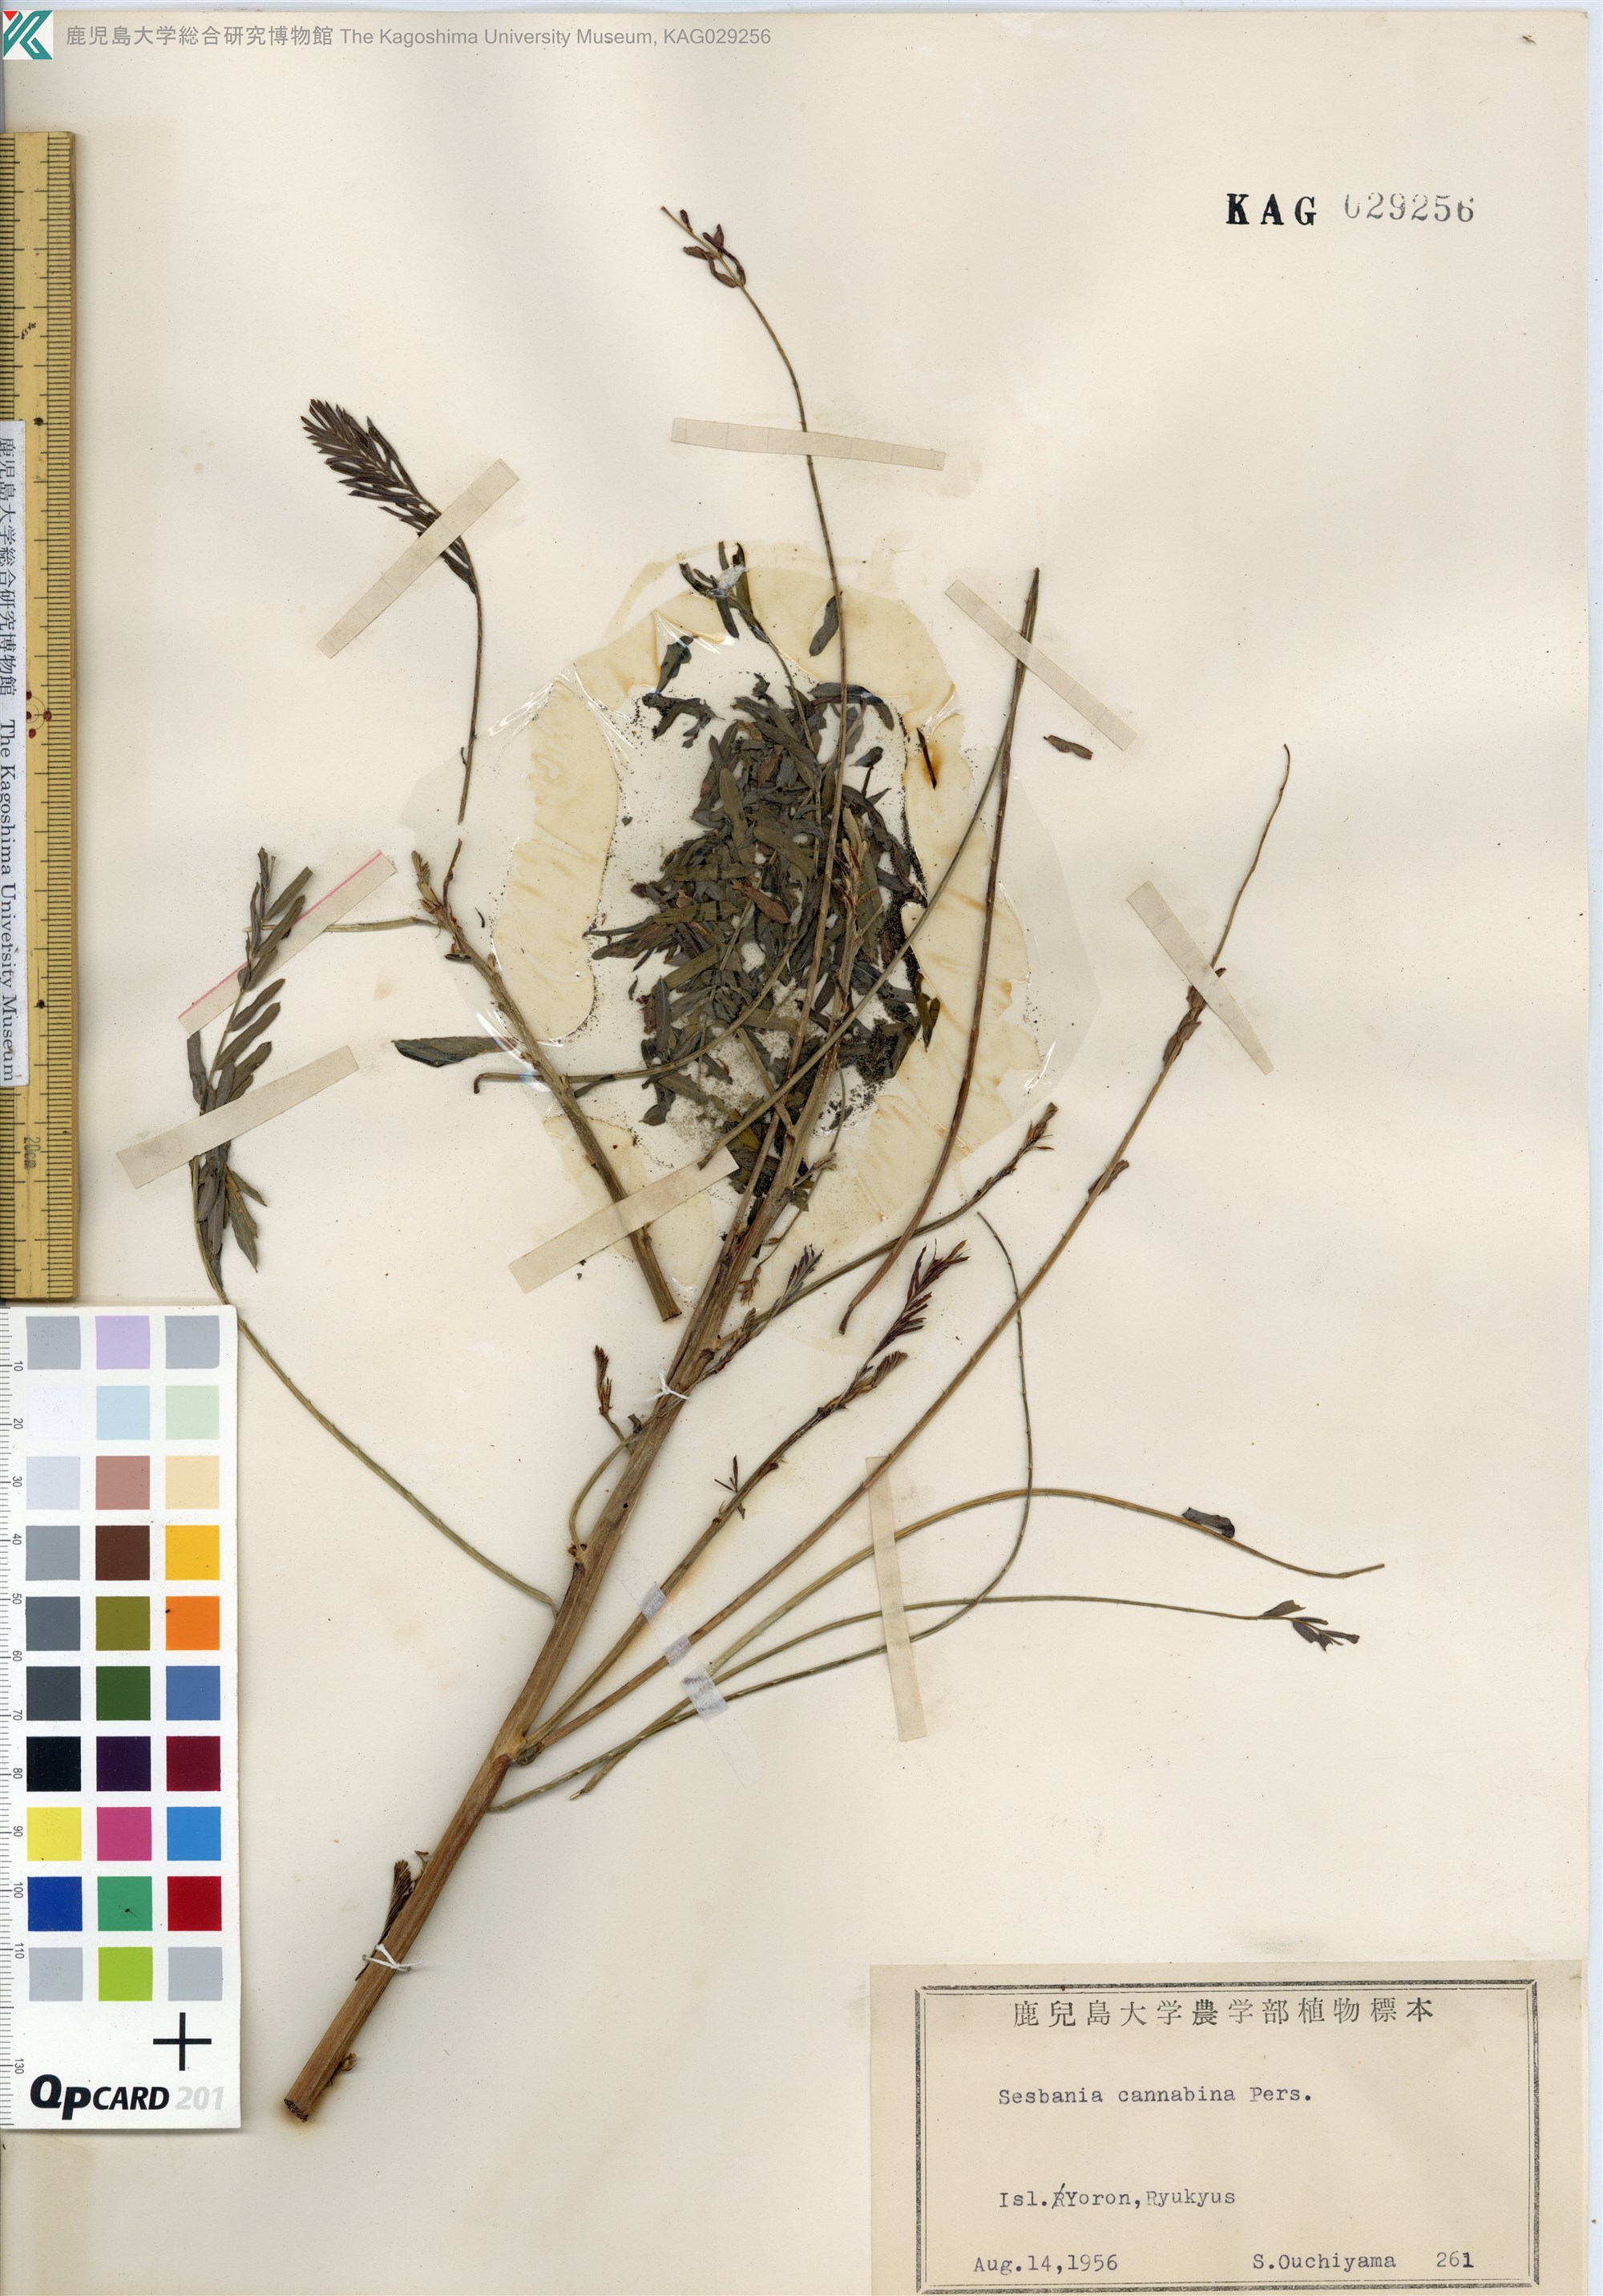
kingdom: Plantae
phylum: Tracheophyta
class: Magnoliopsida
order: Fabales
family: Fabaceae
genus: Sesbania
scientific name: Sesbania cannabina
